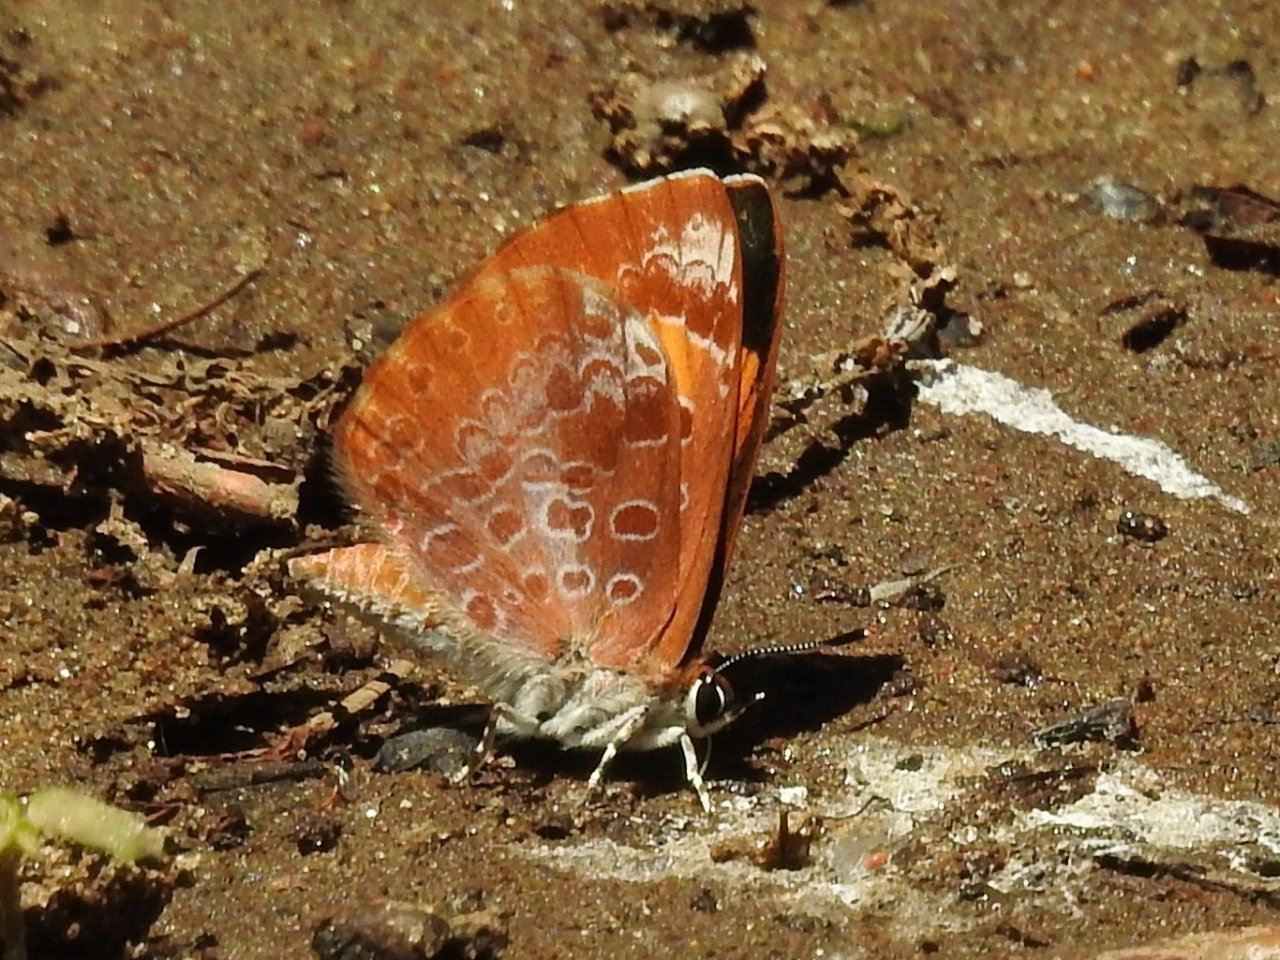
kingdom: Animalia
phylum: Arthropoda
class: Insecta
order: Lepidoptera
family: Lycaenidae
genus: Feniseca
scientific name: Feniseca tarquinius
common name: Harvester
